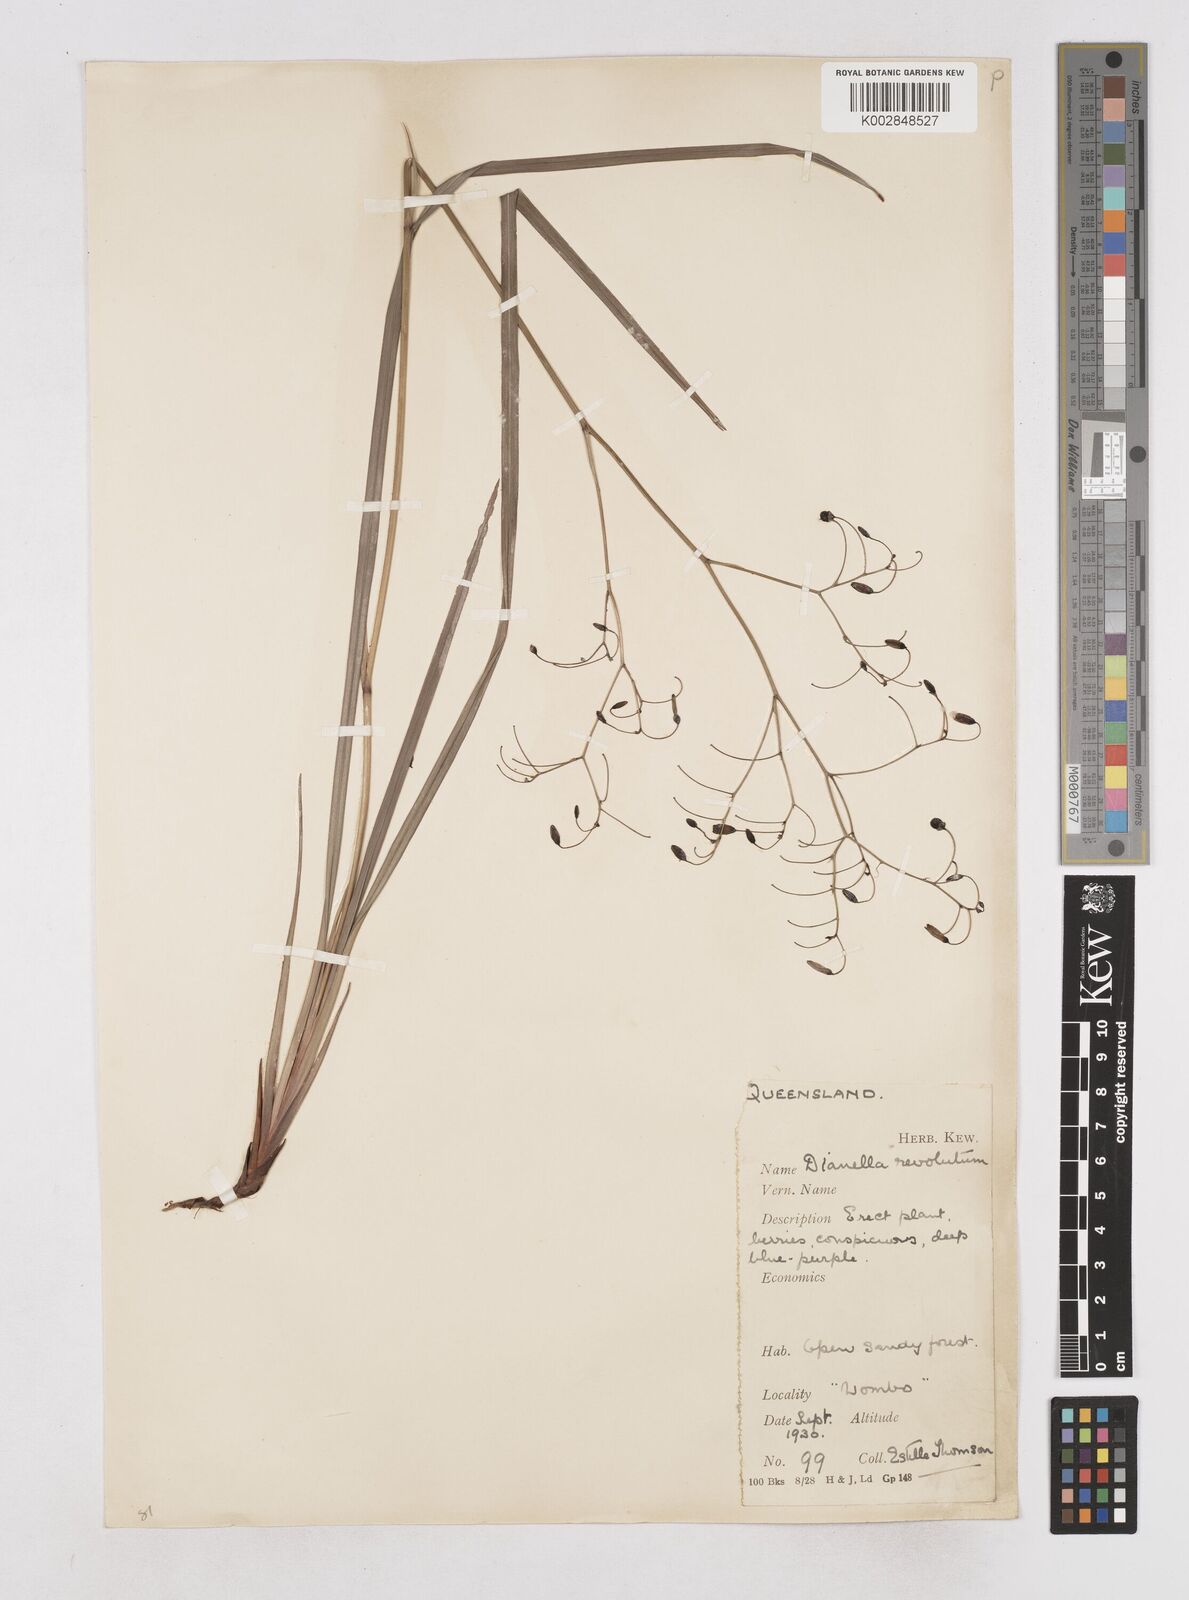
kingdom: Plantae
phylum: Tracheophyta
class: Liliopsida
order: Asparagales
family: Asphodelaceae
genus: Dianella
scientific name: Dianella revoluta
